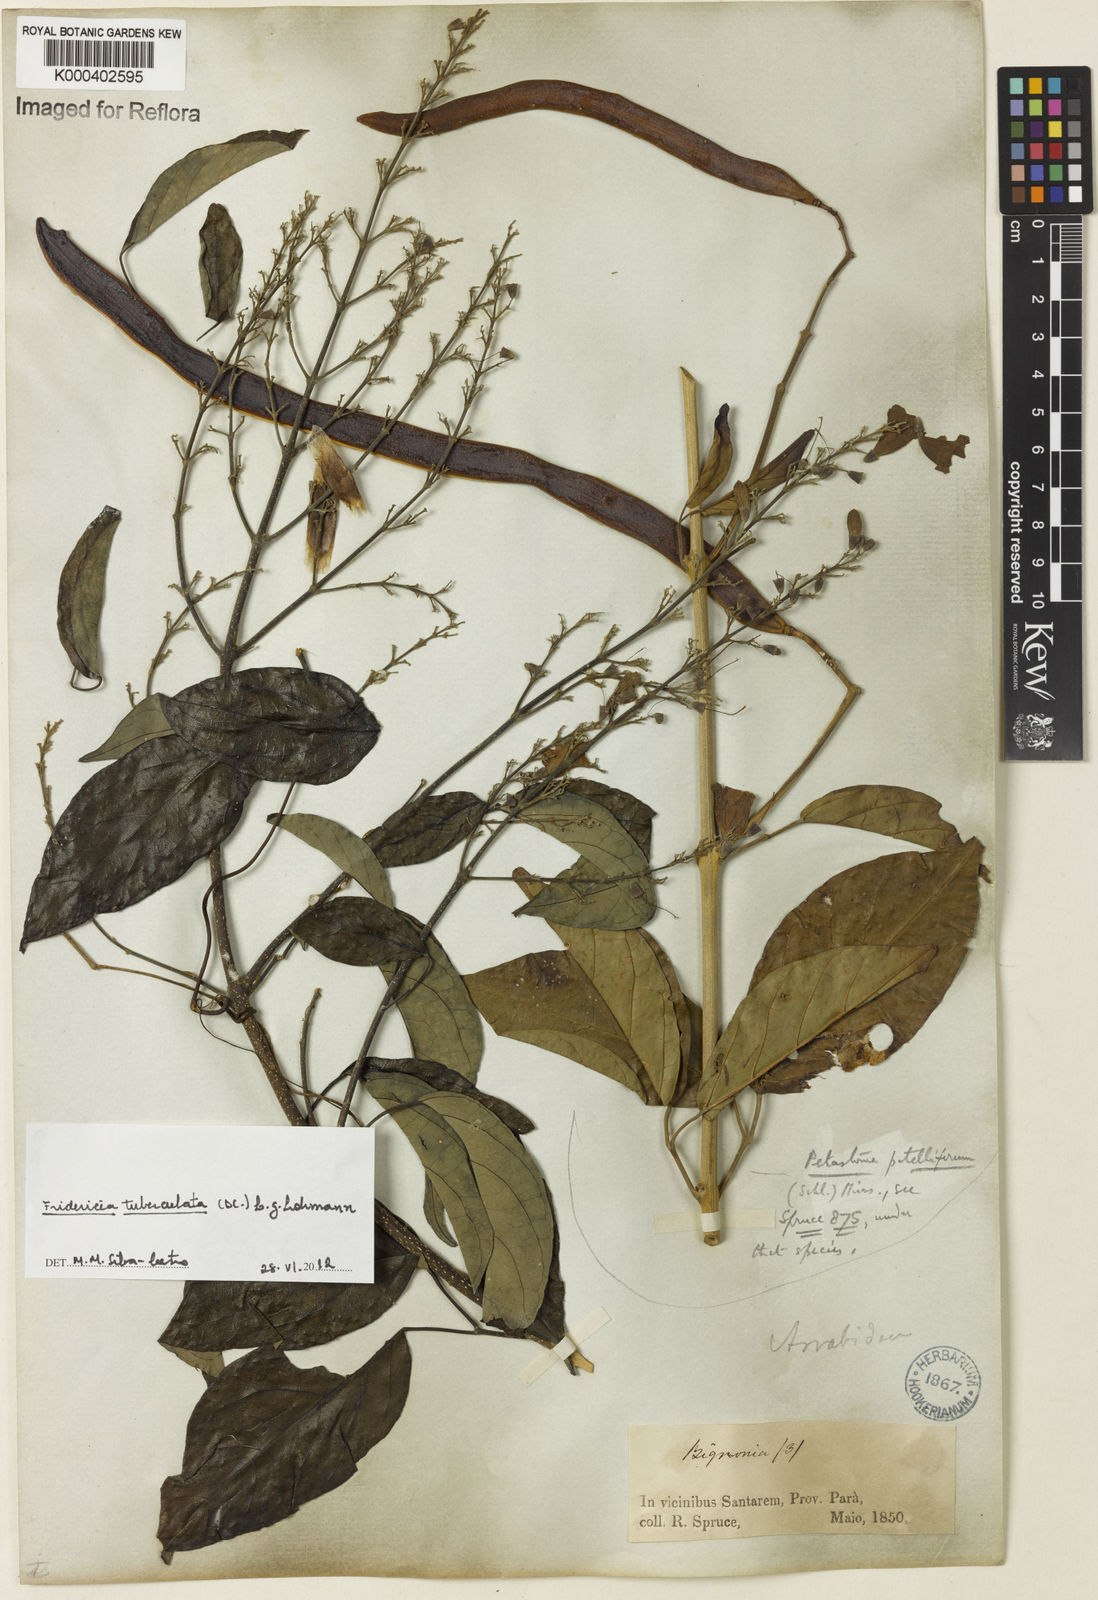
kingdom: Plantae
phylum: Tracheophyta
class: Magnoliopsida
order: Lamiales
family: Bignoniaceae
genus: Fridericia
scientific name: Fridericia tuberculata
